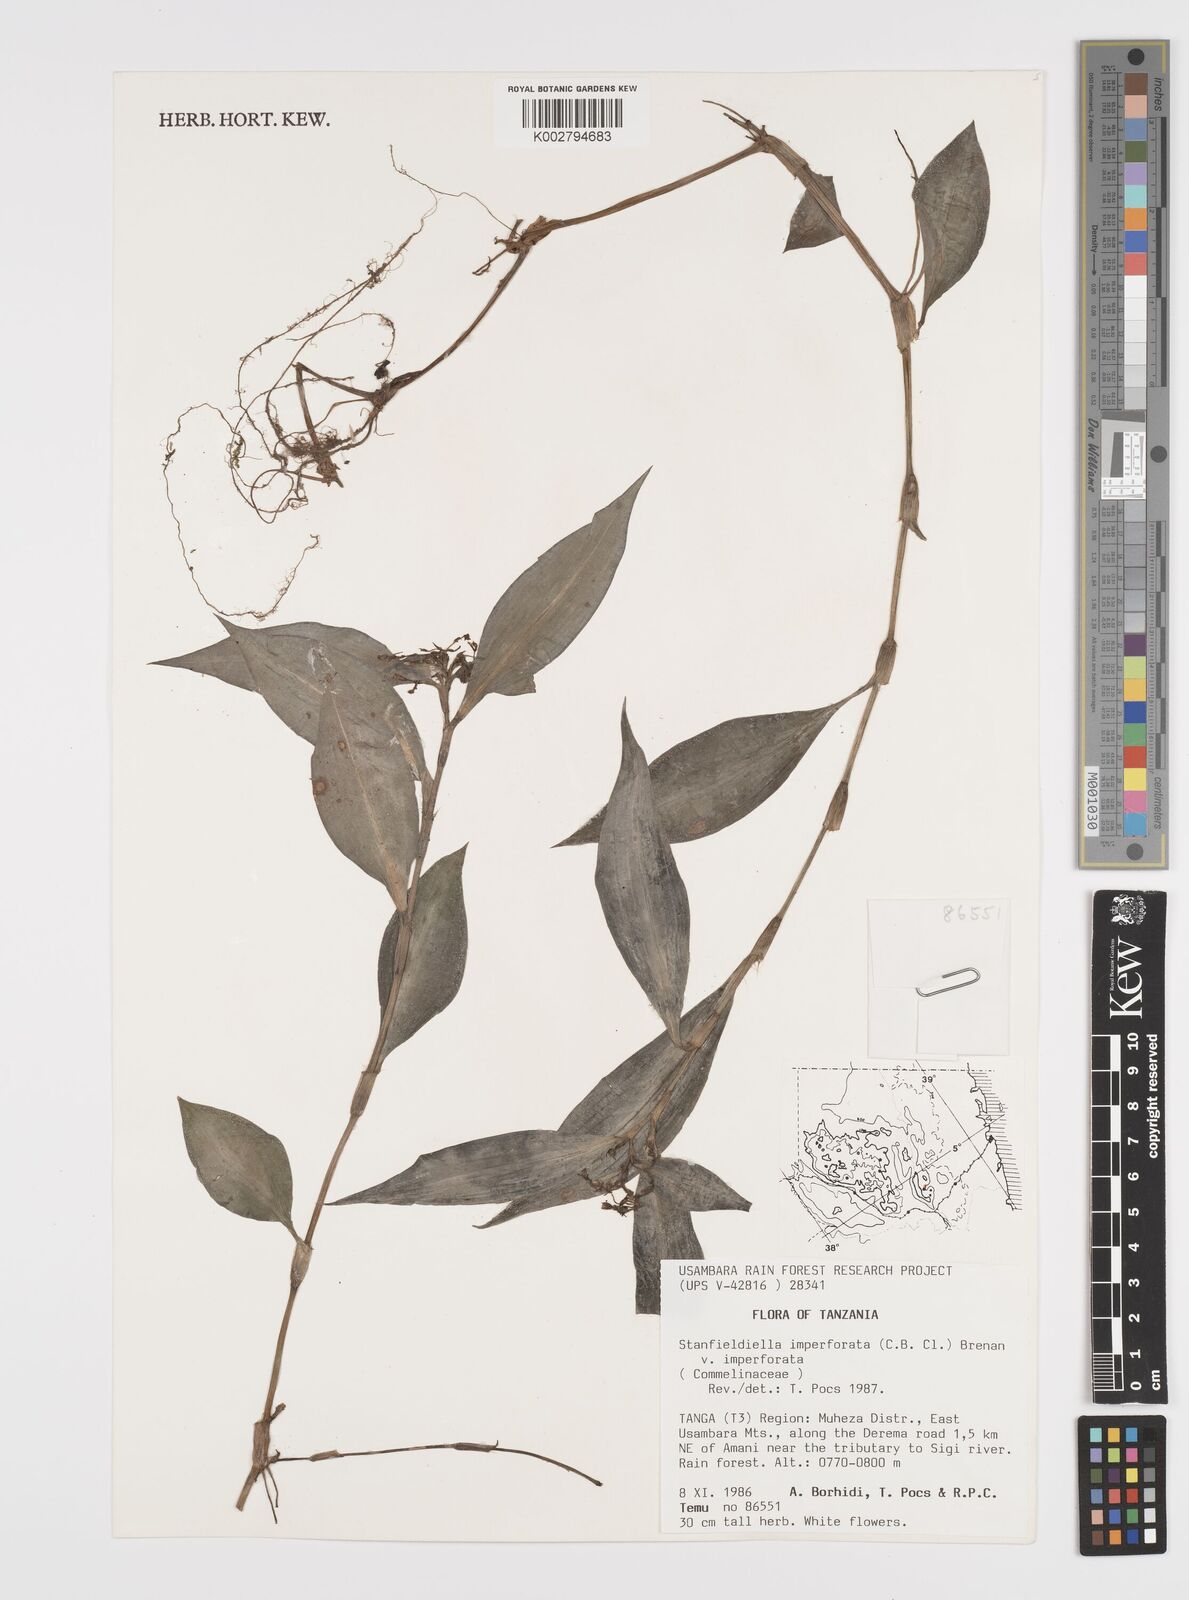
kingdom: Plantae
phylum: Tracheophyta
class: Liliopsida
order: Commelinales
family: Commelinaceae
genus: Stanfieldiella
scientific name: Stanfieldiella imperforata
